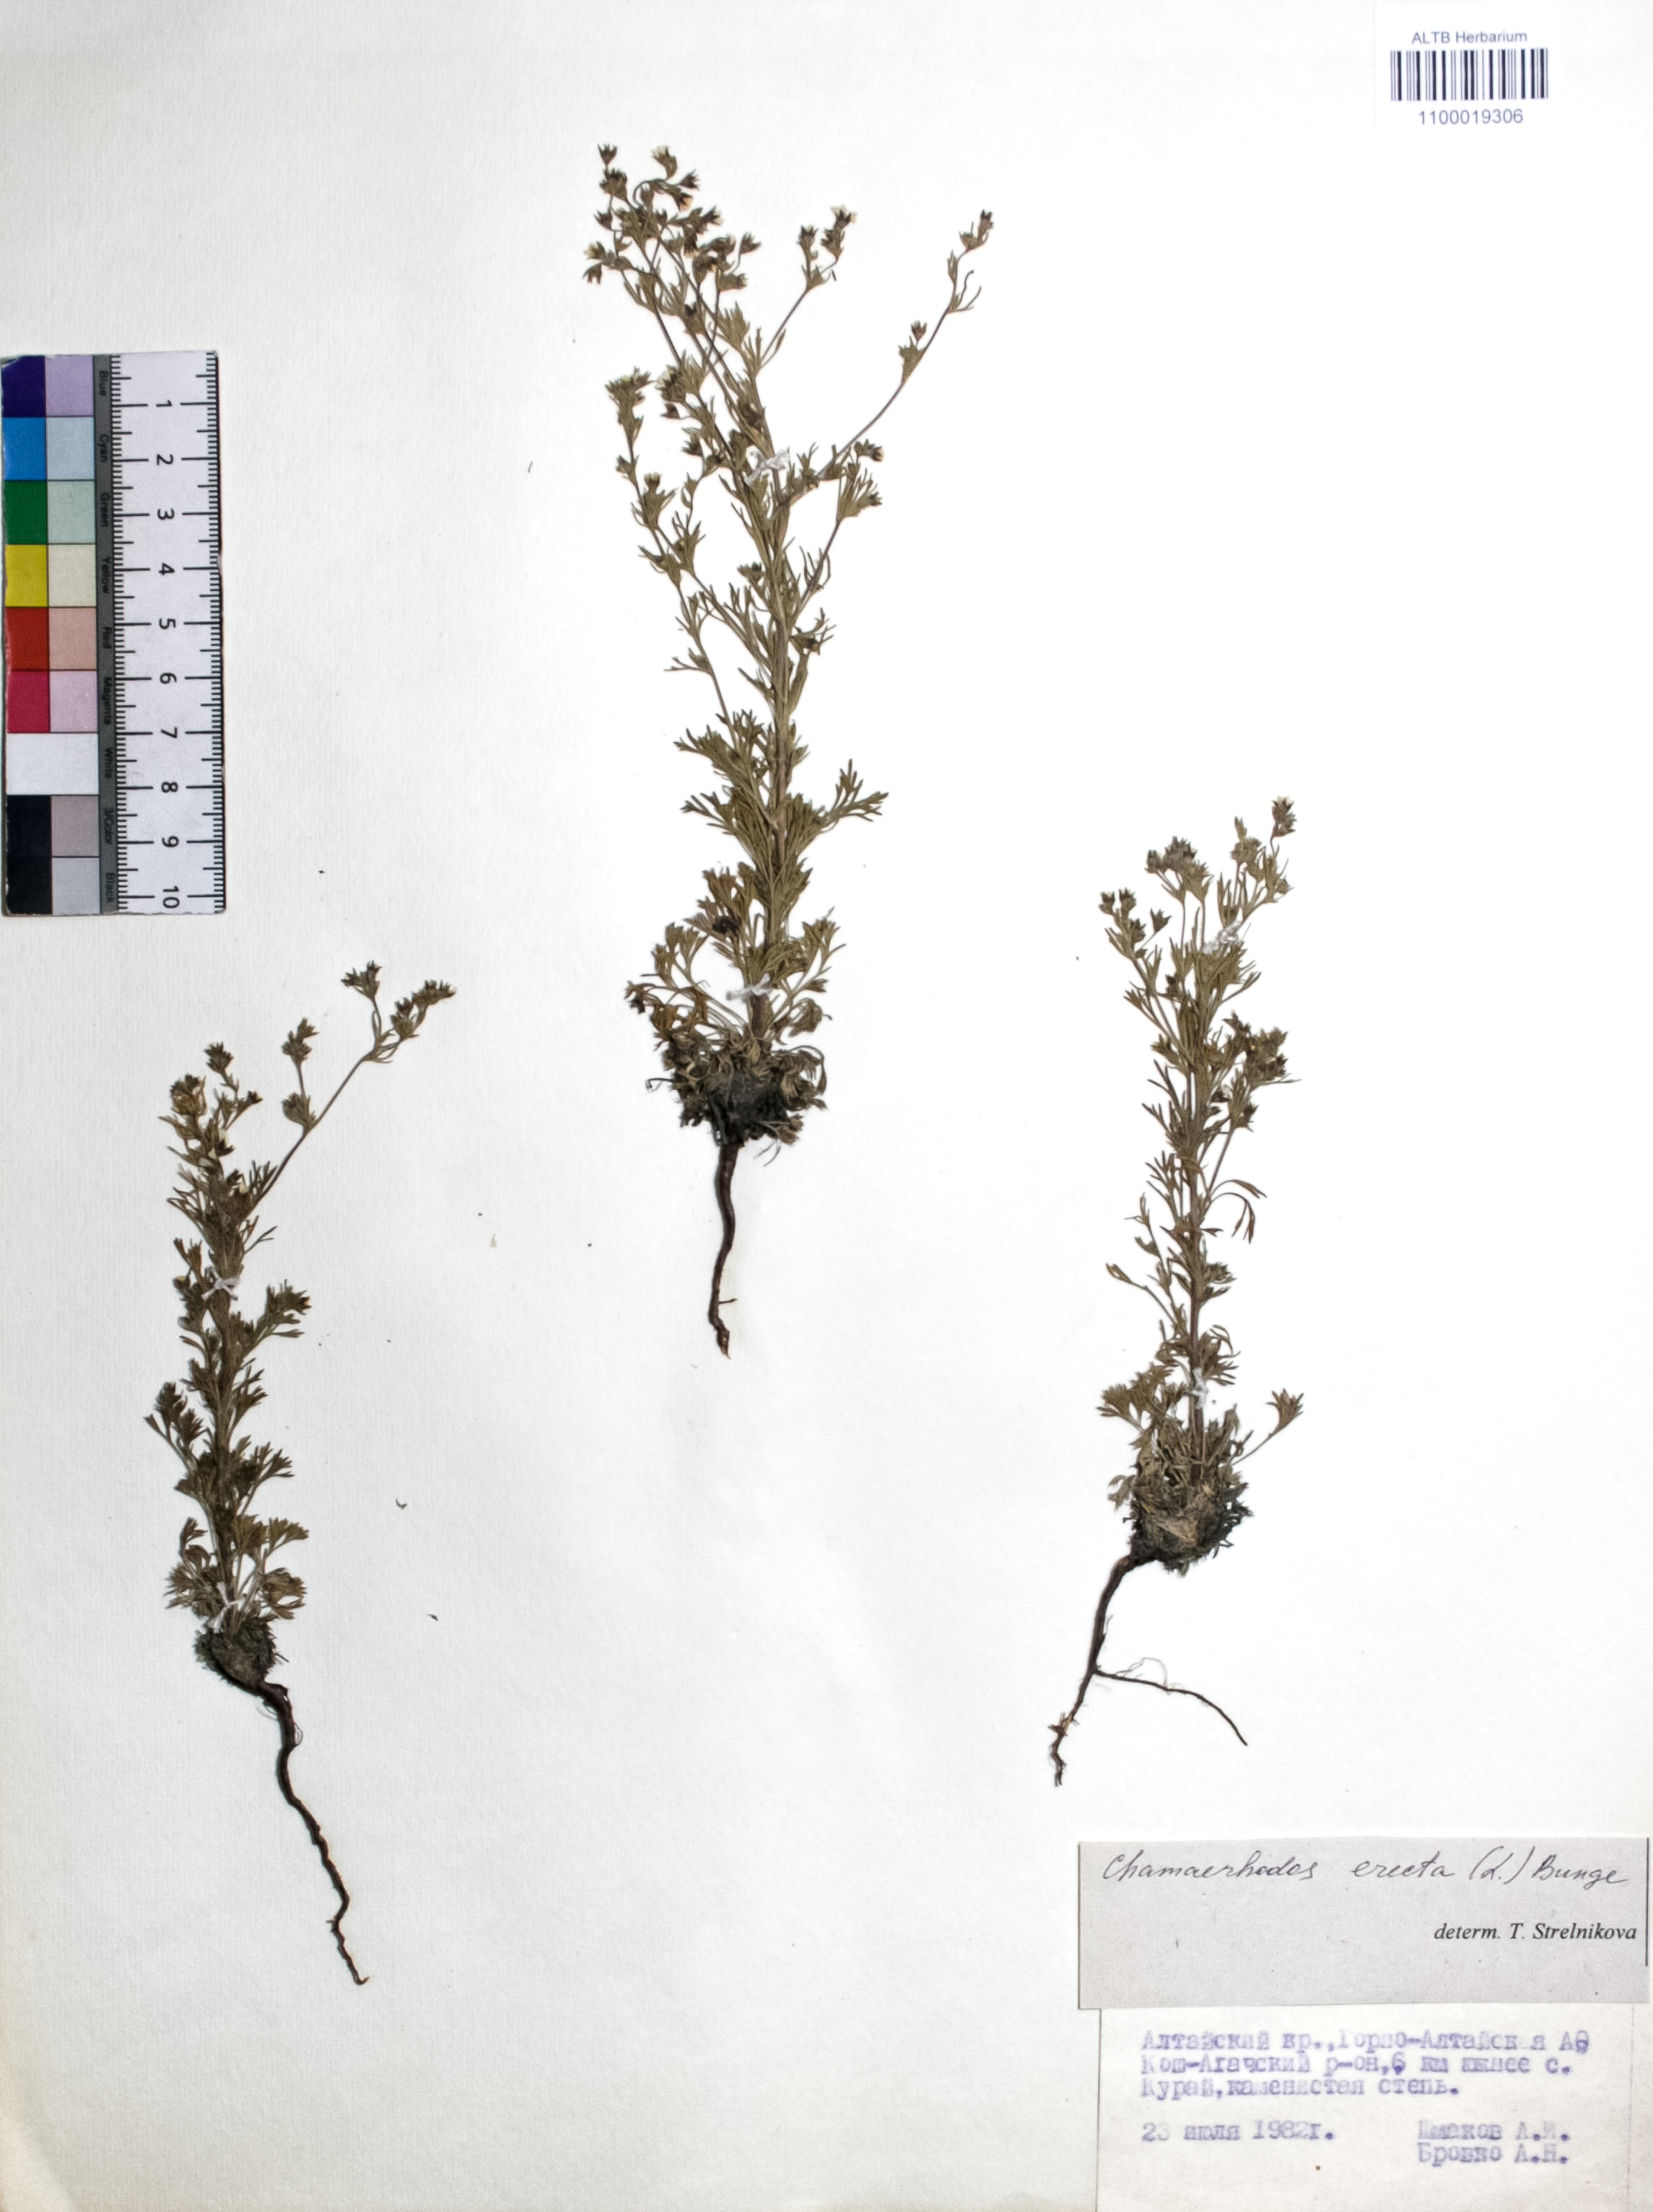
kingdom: Plantae
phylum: Tracheophyta
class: Magnoliopsida
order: Rosales
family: Rosaceae
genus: Chamaerhodos
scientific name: Chamaerhodos erecta
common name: American chamaerhodos
